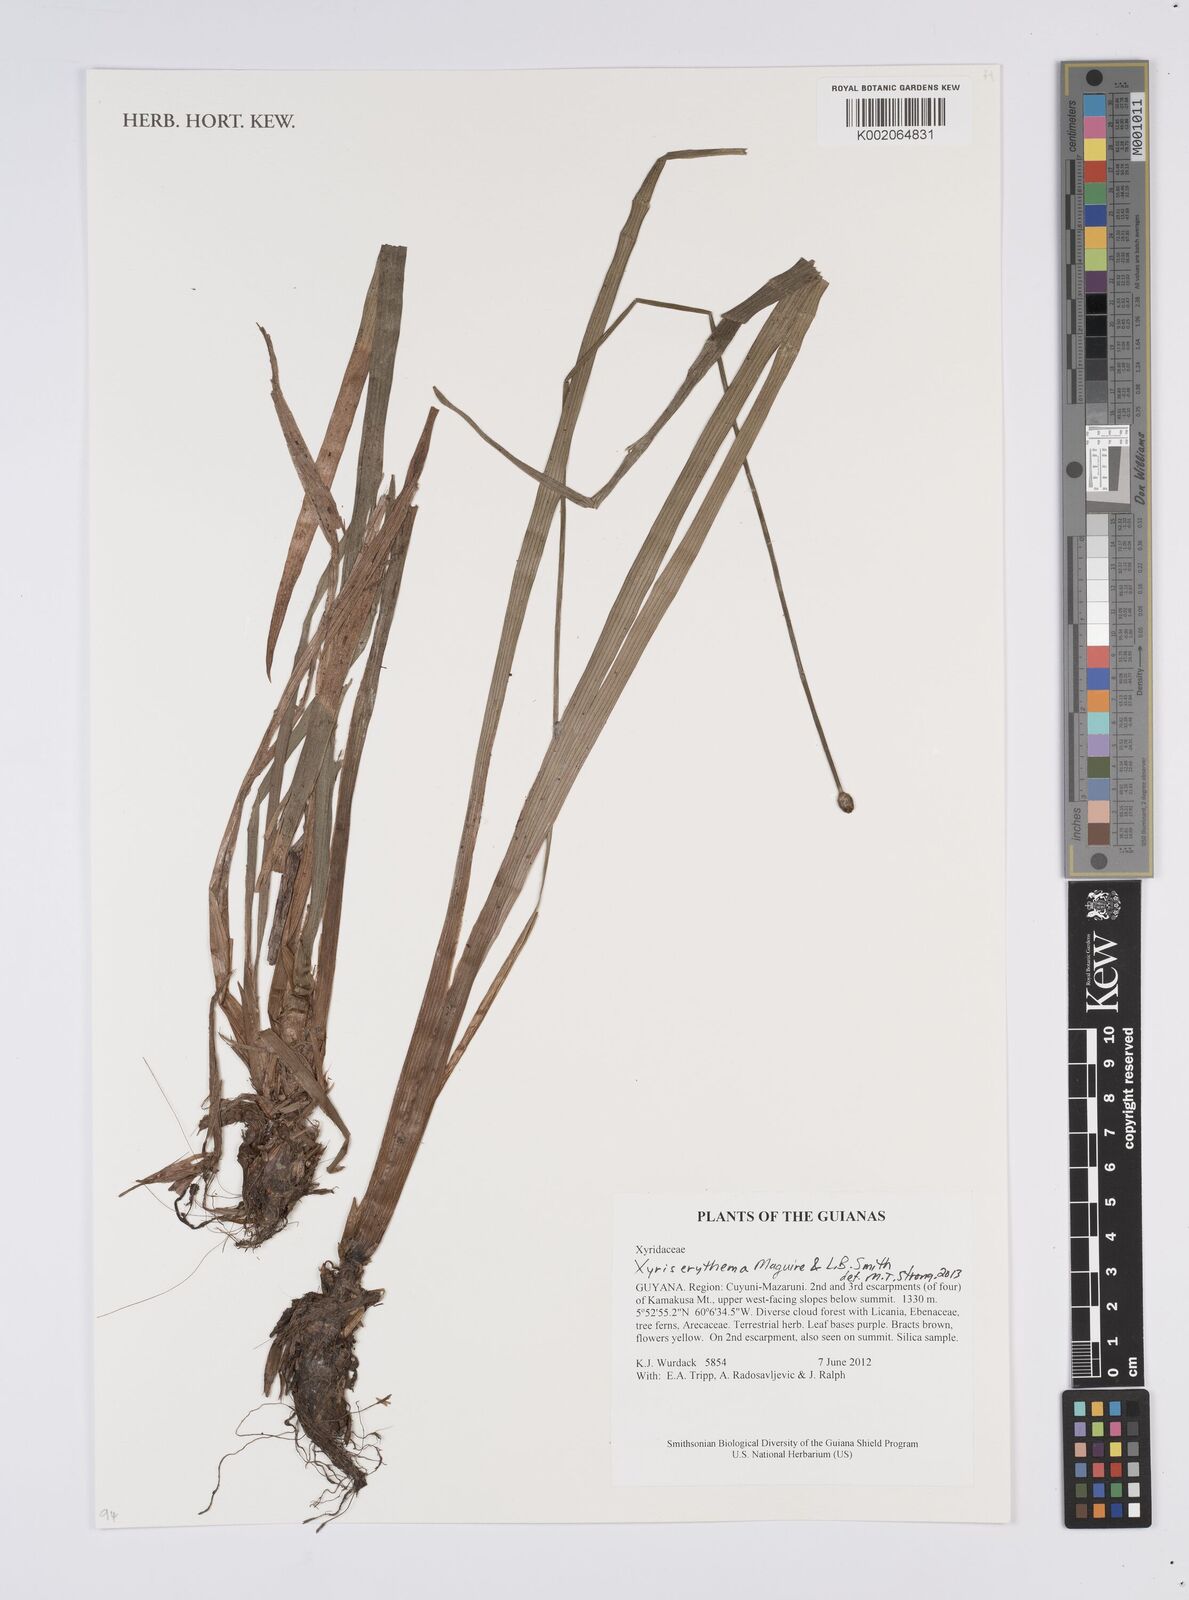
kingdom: Plantae
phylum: Tracheophyta
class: Liliopsida
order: Poales
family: Xyridaceae
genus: Xyris
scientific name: Xyris fallax
